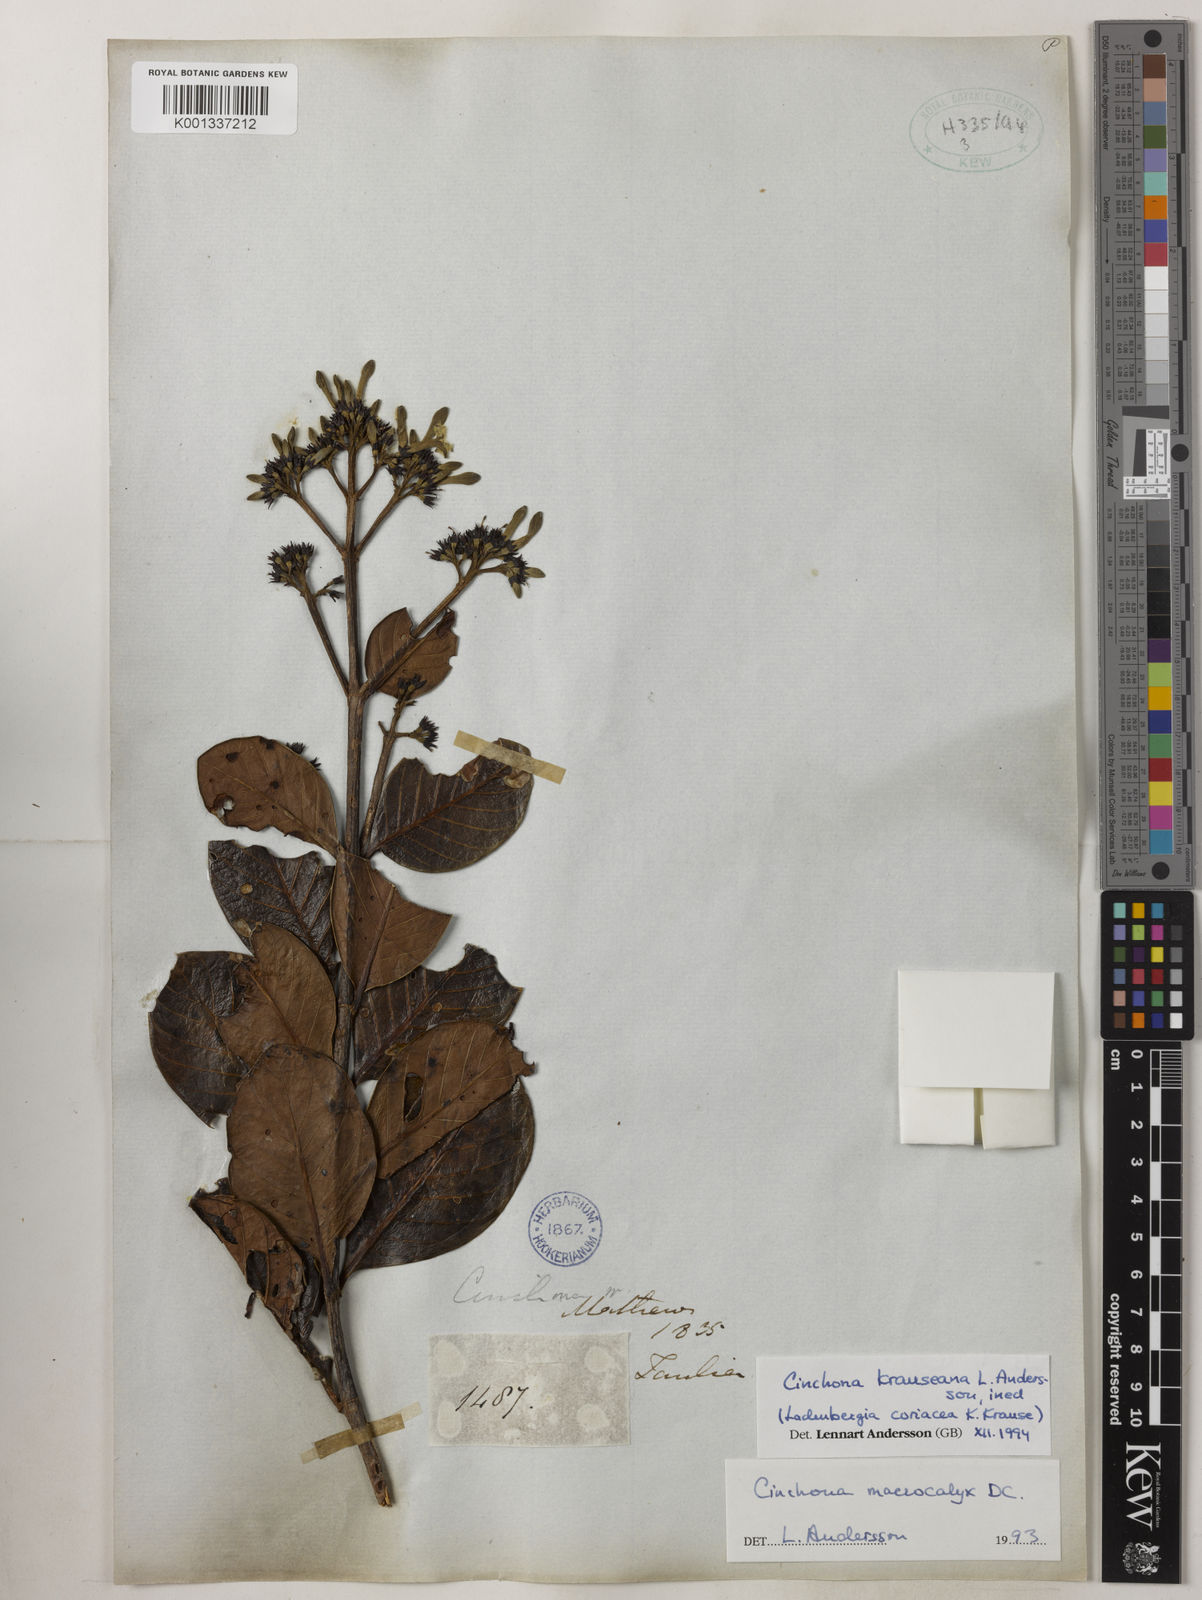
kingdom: Plantae
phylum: Tracheophyta
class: Magnoliopsida
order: Gentianales
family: Rubiaceae
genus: Cinchona
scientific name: Cinchona krauseana
